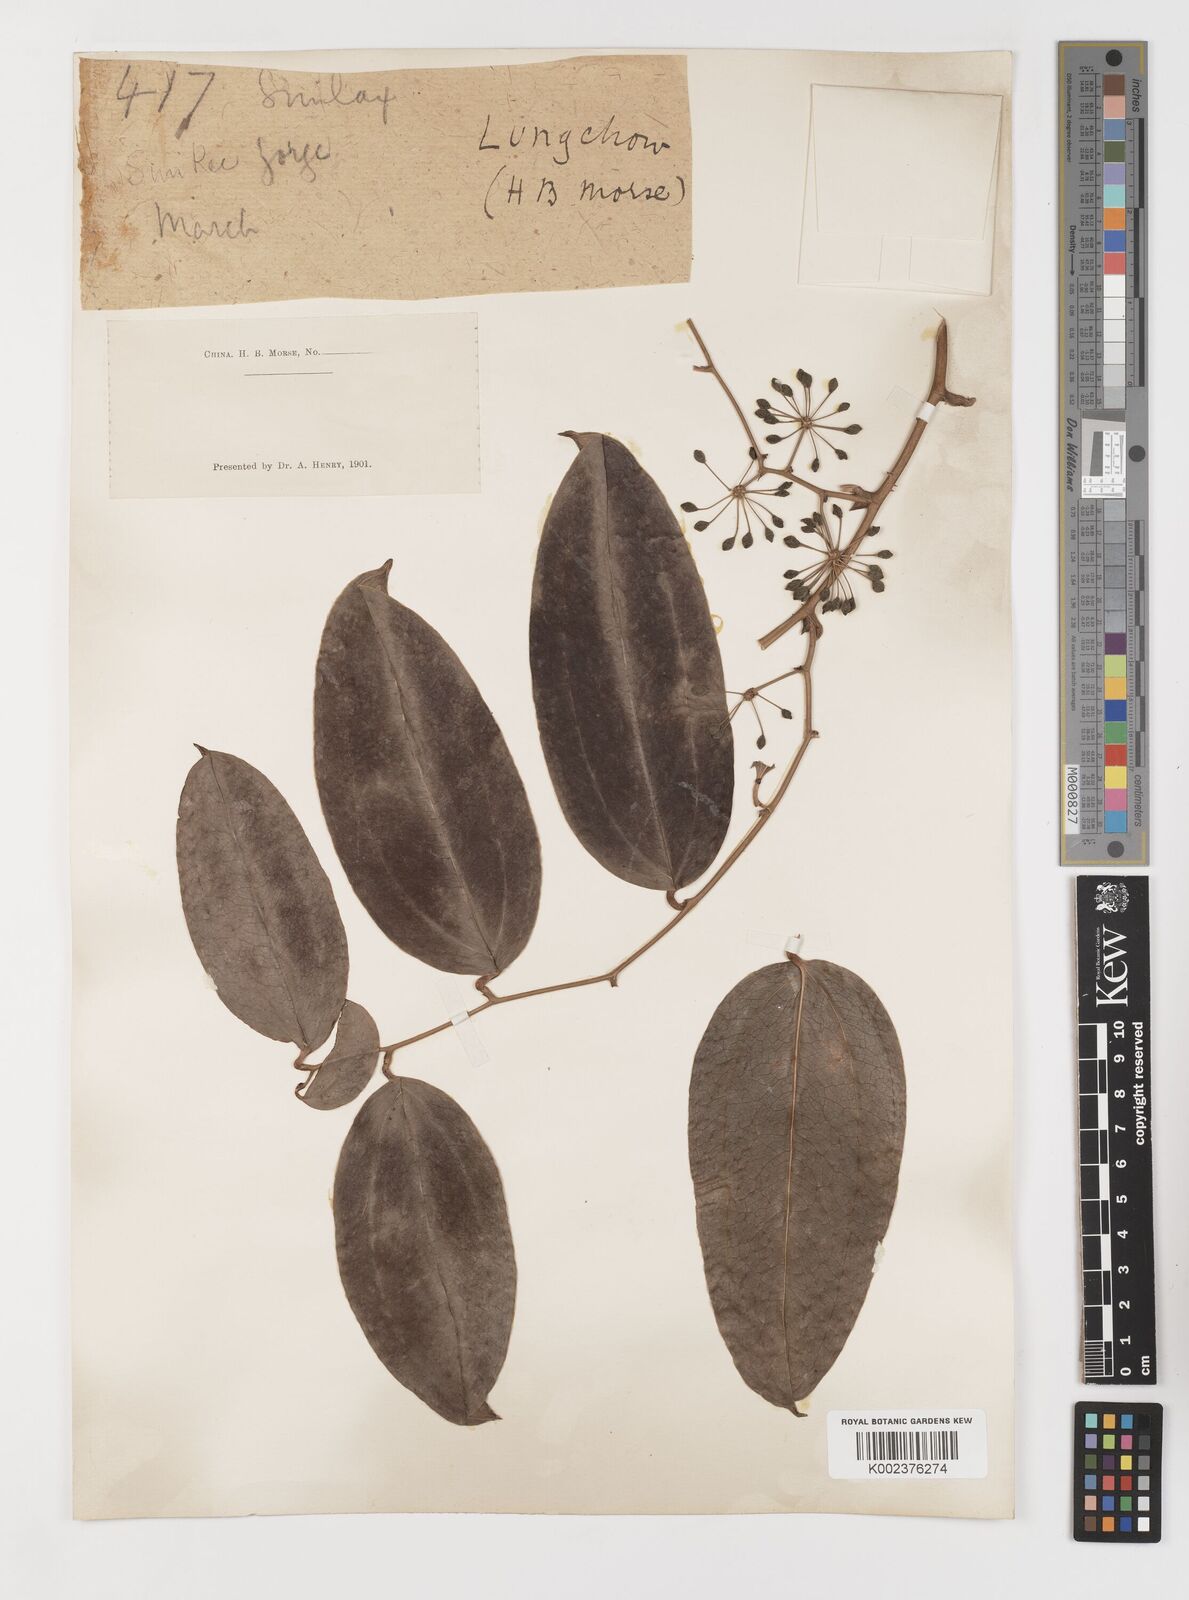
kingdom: Plantae
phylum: Tracheophyta
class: Liliopsida
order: Liliales
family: Smilacaceae
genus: Smilax
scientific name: Smilax megacarpa
